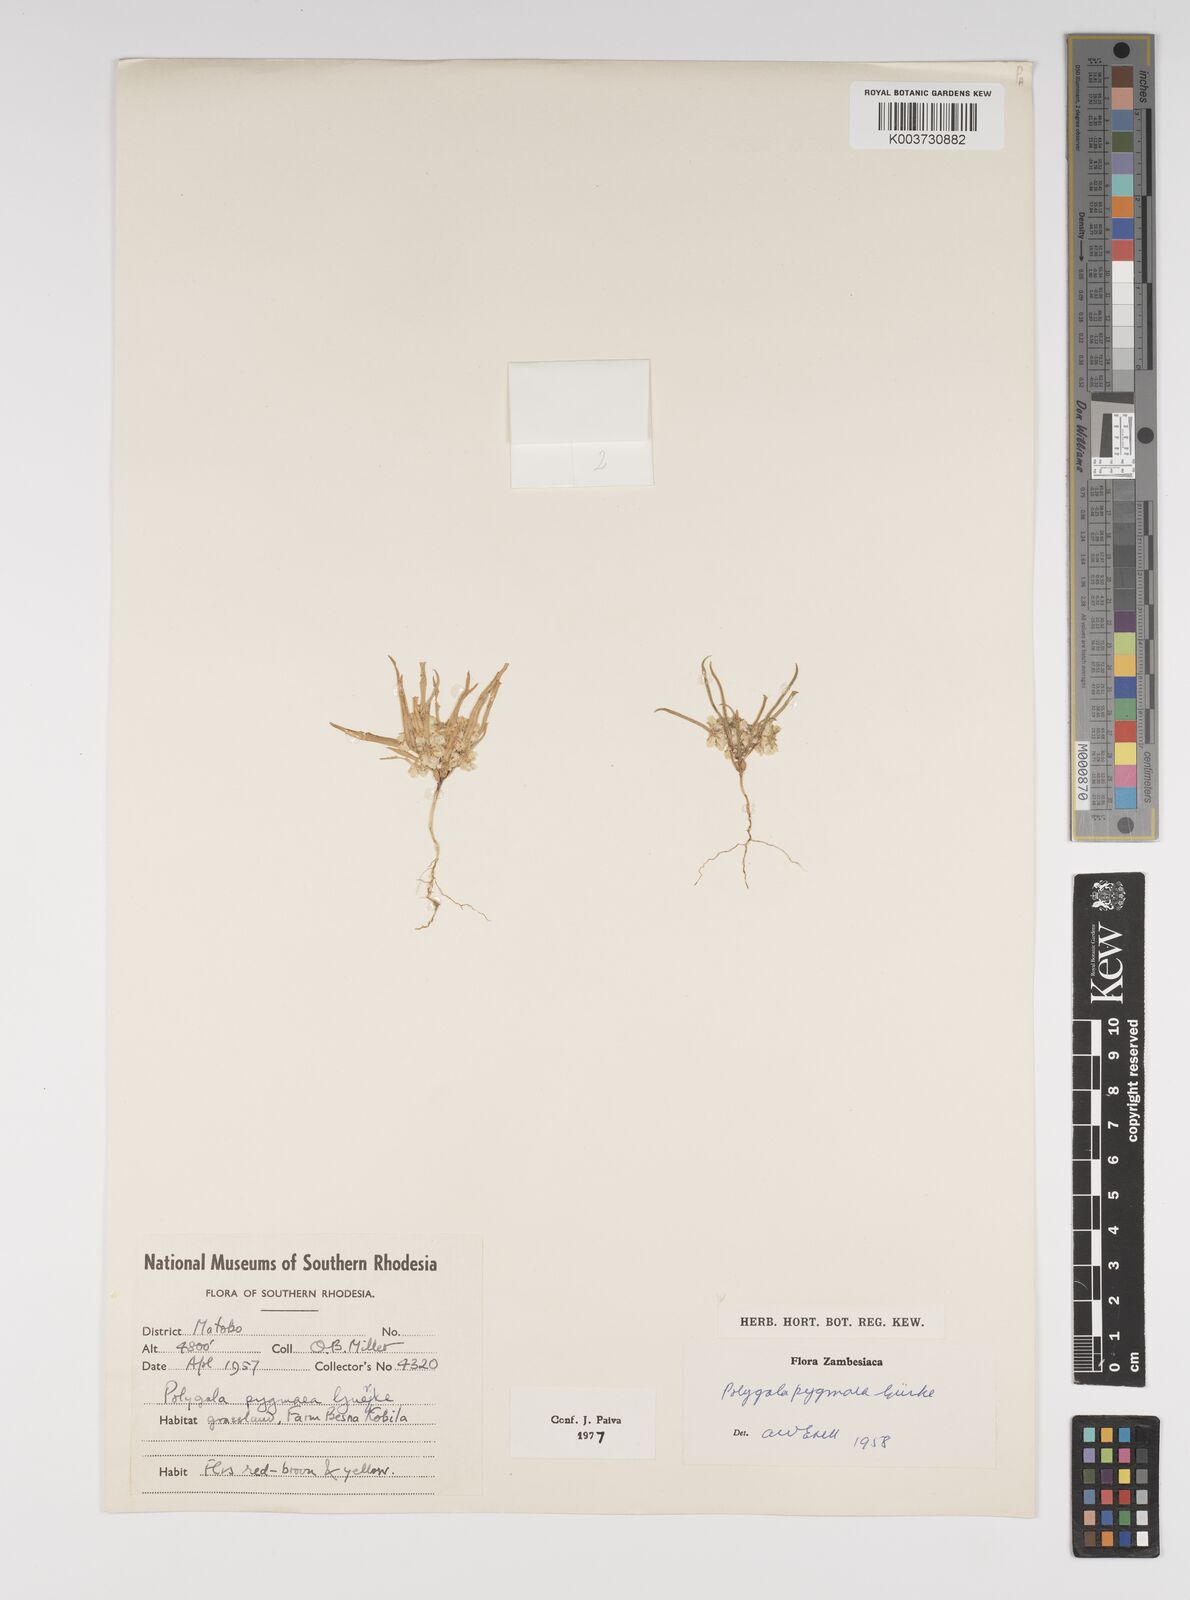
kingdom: Plantae
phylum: Tracheophyta
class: Magnoliopsida
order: Fabales
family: Polygalaceae
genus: Polygala
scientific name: Polygala welwitschii
